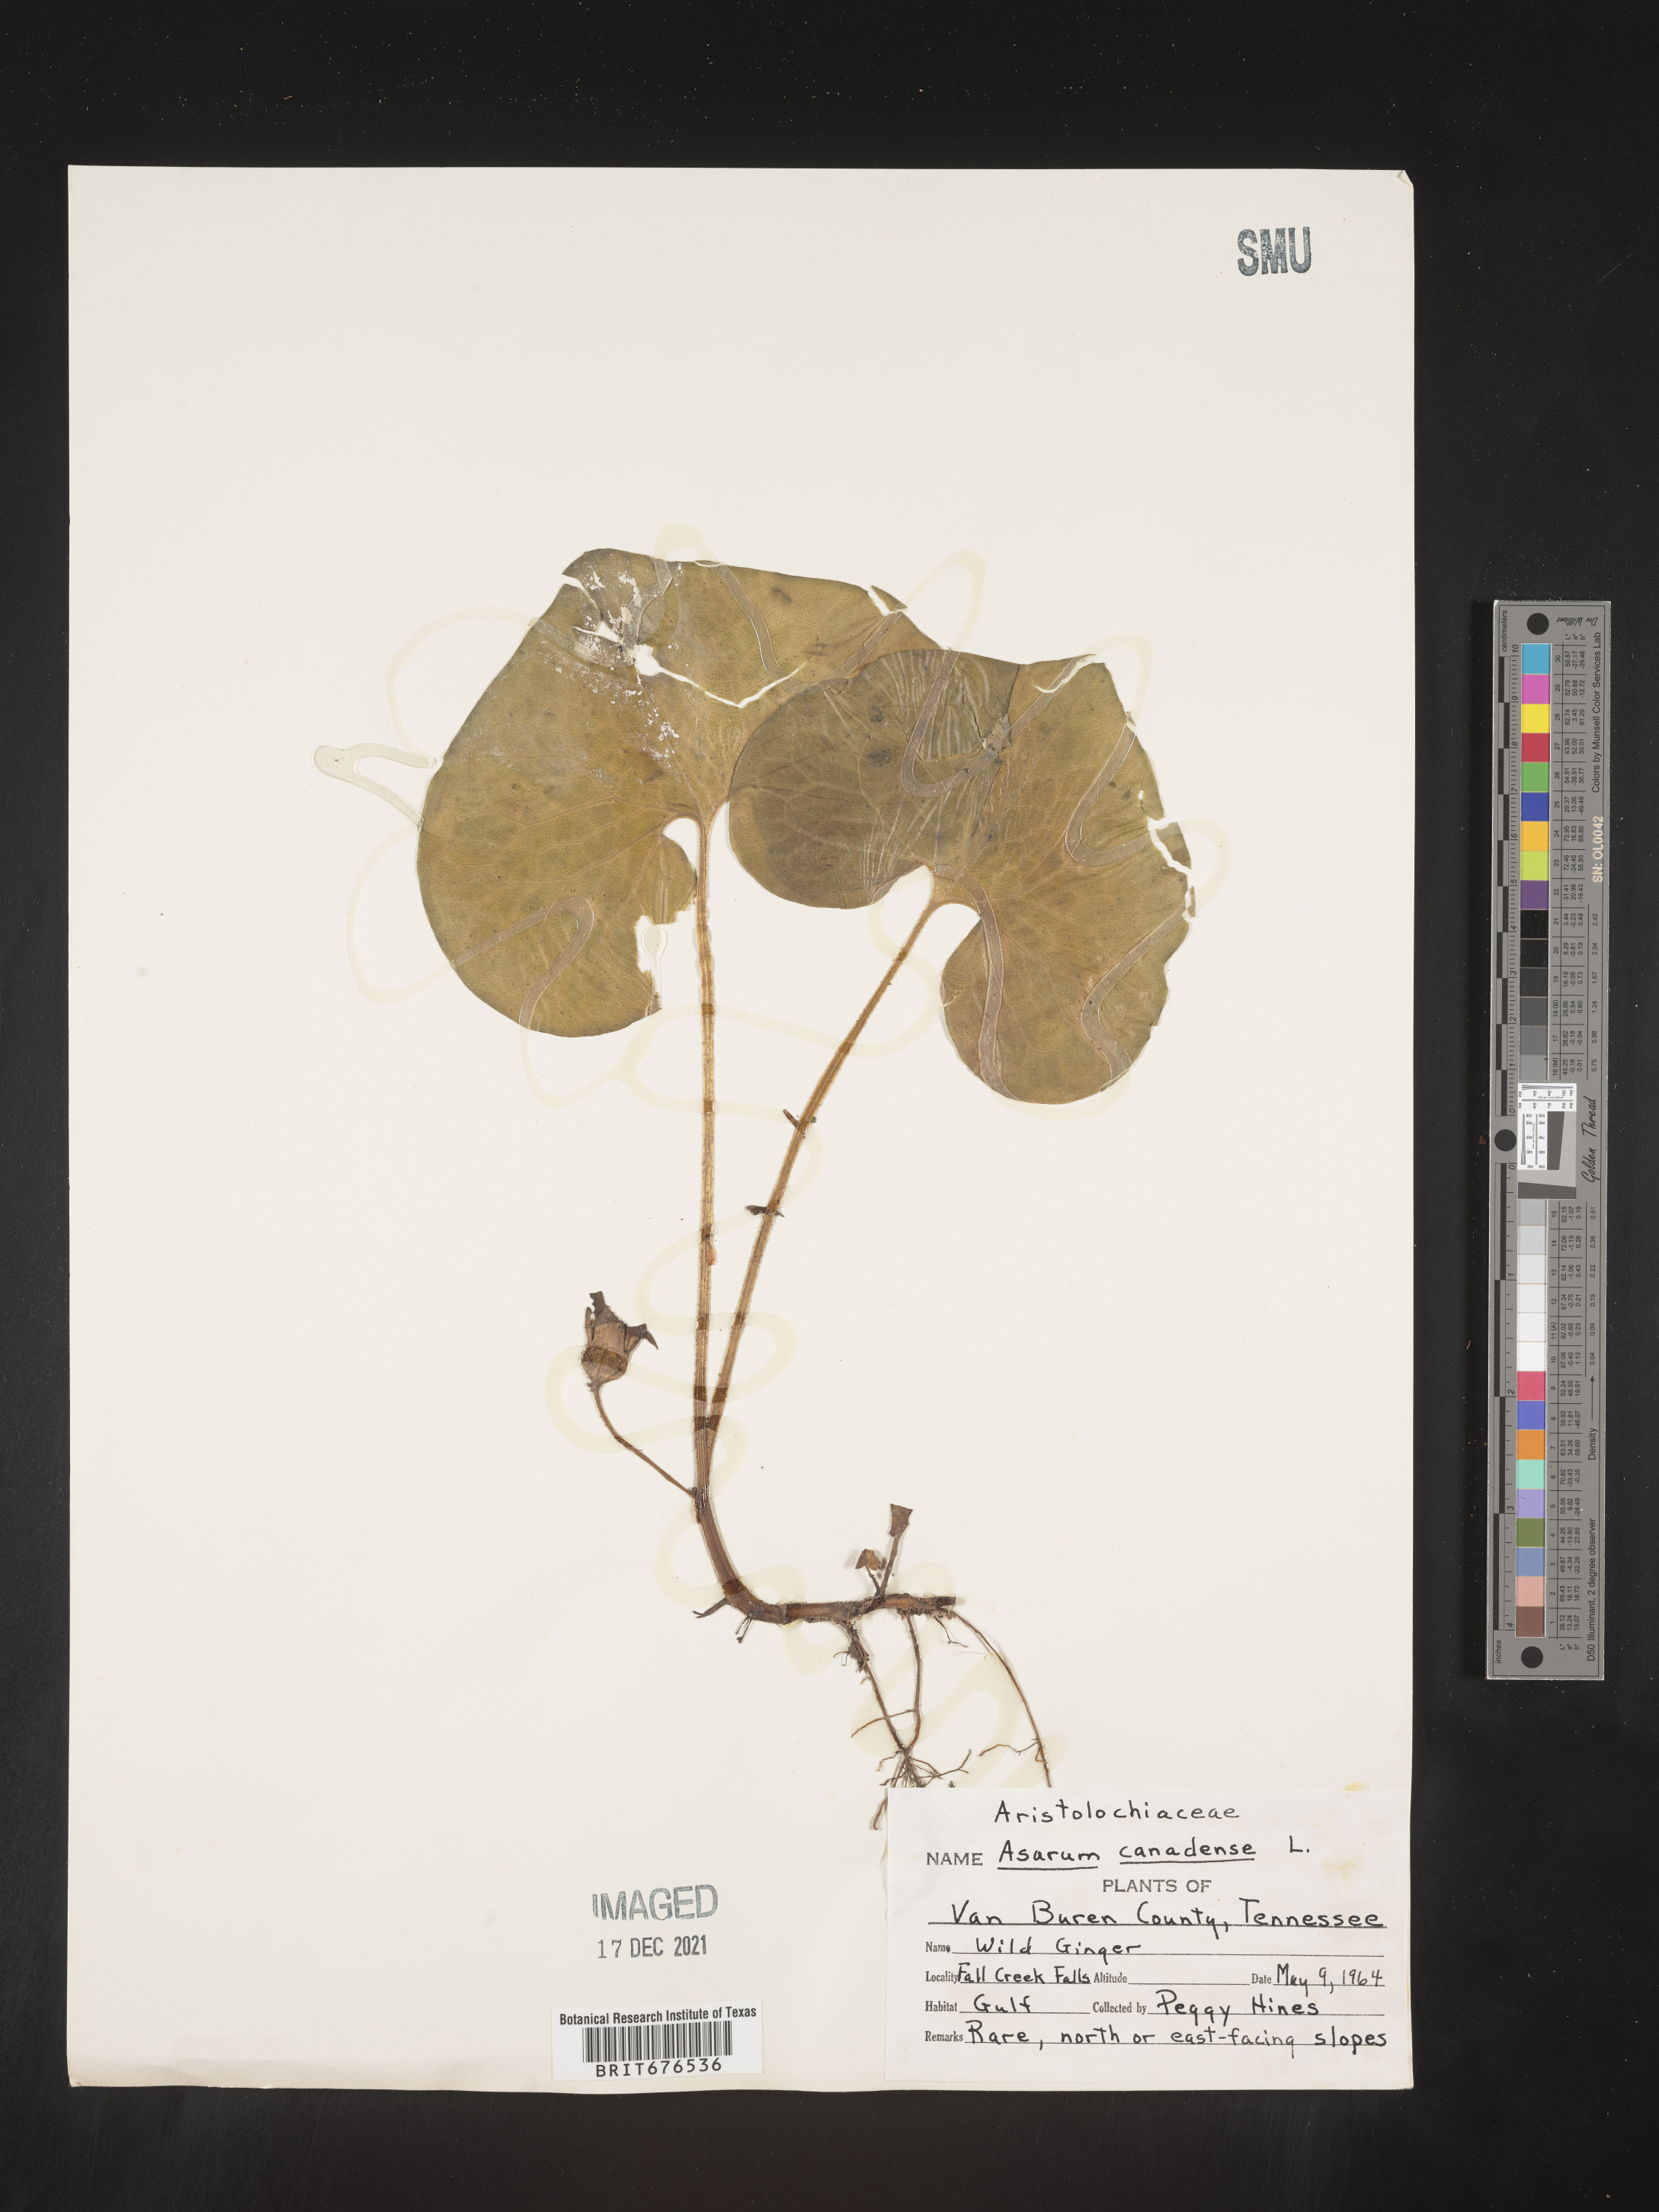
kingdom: Plantae
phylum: Tracheophyta
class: Magnoliopsida
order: Piperales
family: Aristolochiaceae
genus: Asarum
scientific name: Asarum canadense
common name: Wild ginger
